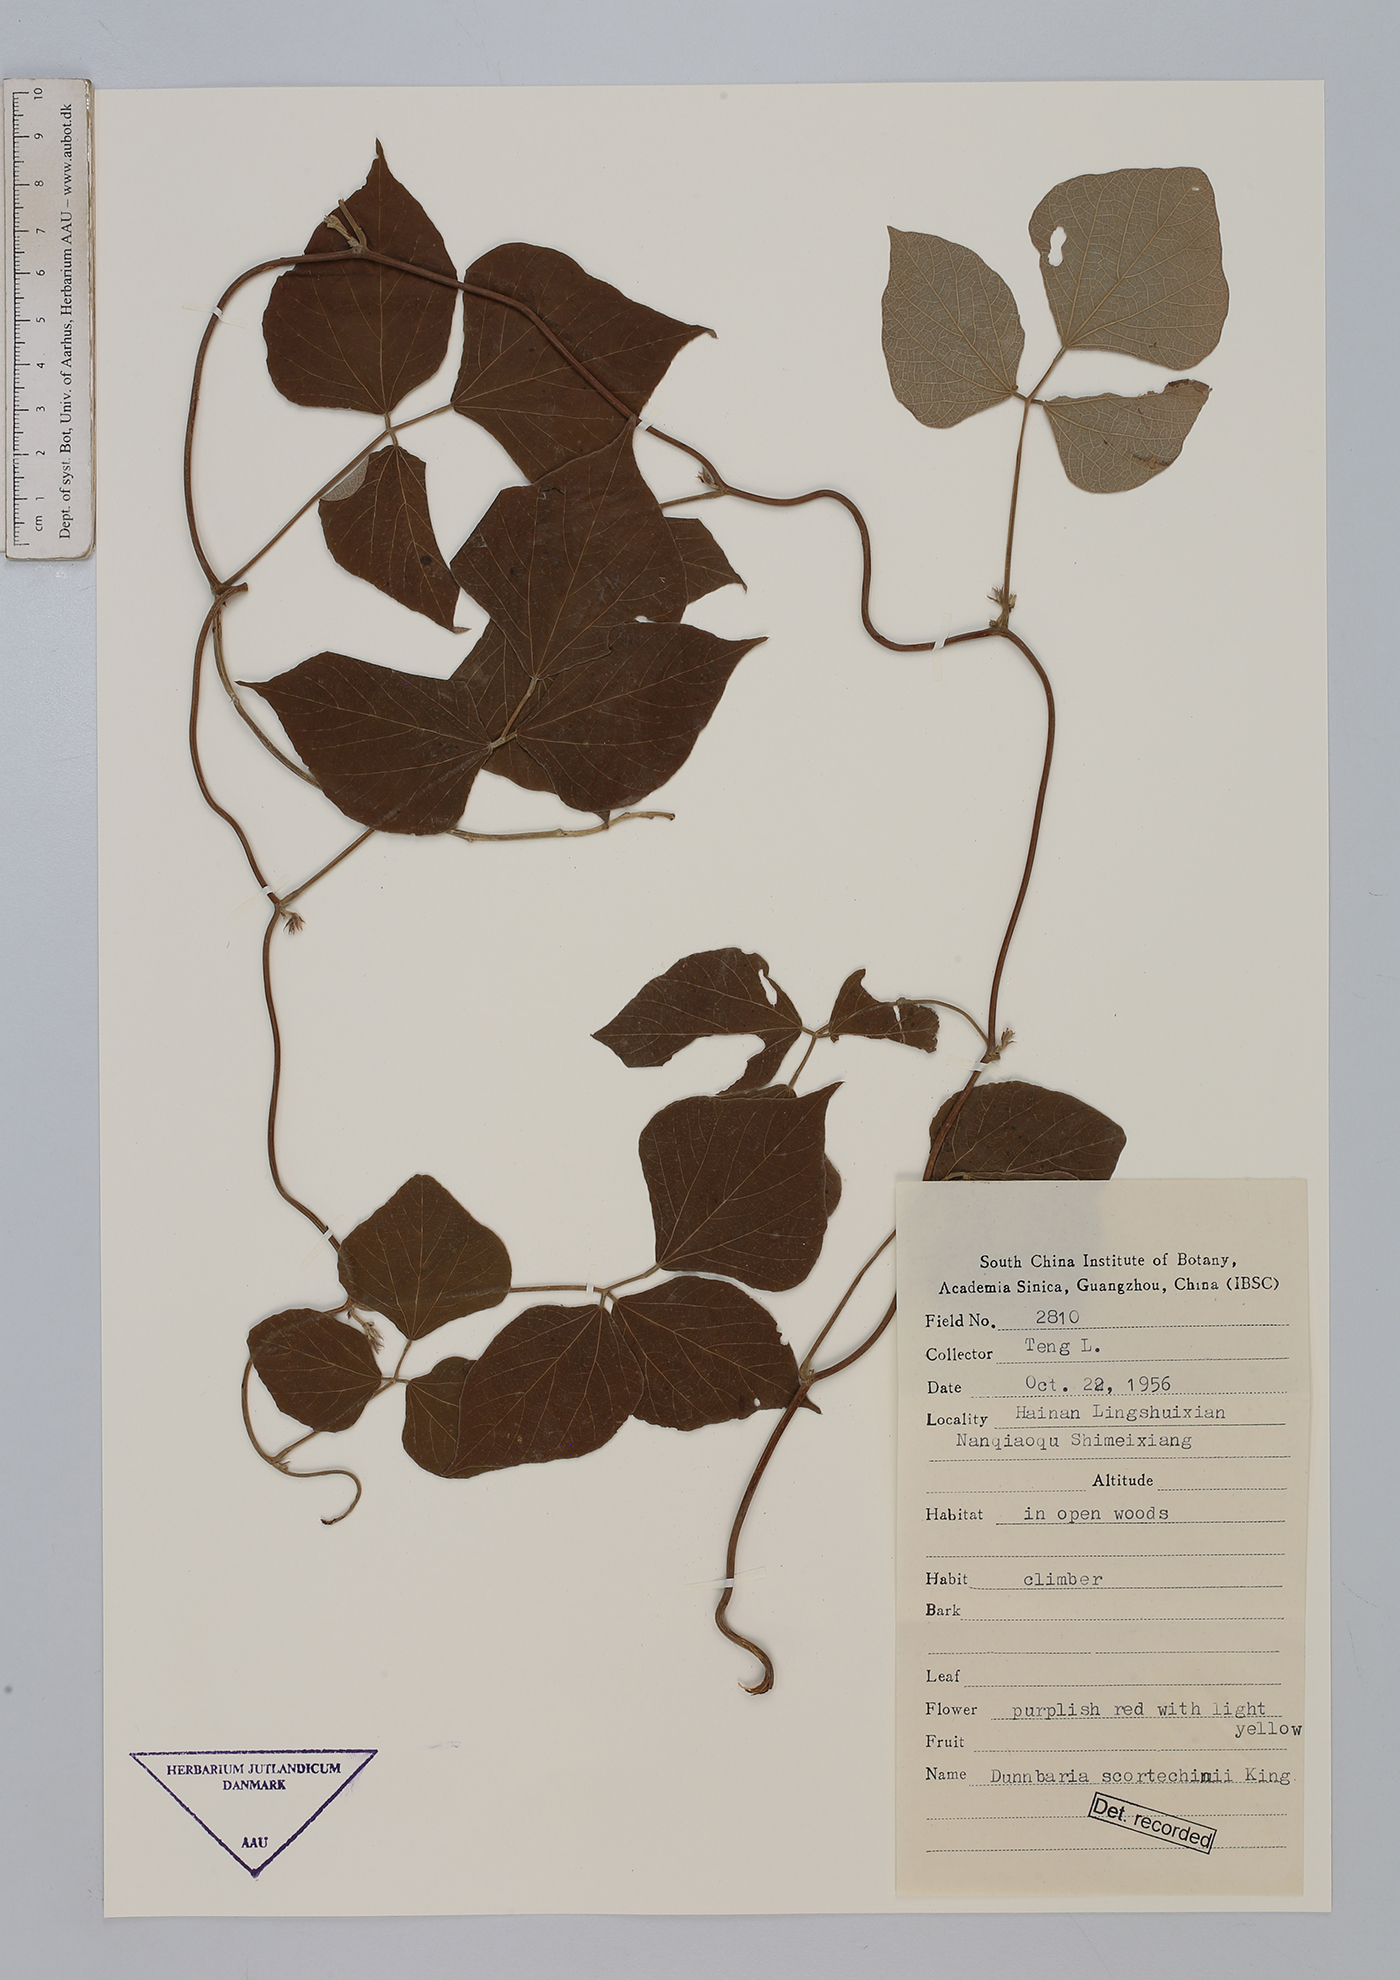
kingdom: Plantae
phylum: Tracheophyta
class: Magnoliopsida
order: Fabales
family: Fabaceae
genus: Dunbaria
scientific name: Dunbaria incana
